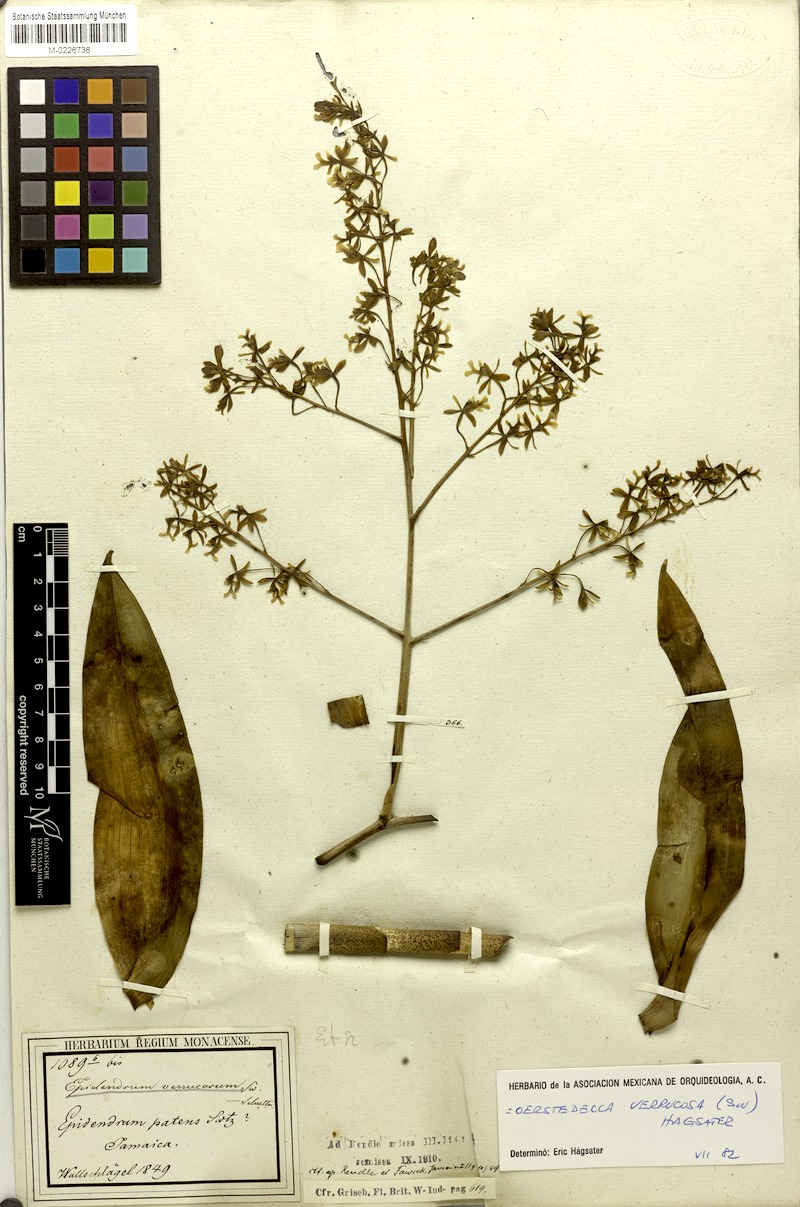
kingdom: Plantae
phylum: Tracheophyta
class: Liliopsida
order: Asparagales
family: Orchidaceae
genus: Epidendrum
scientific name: Epidendrum verrucosum
